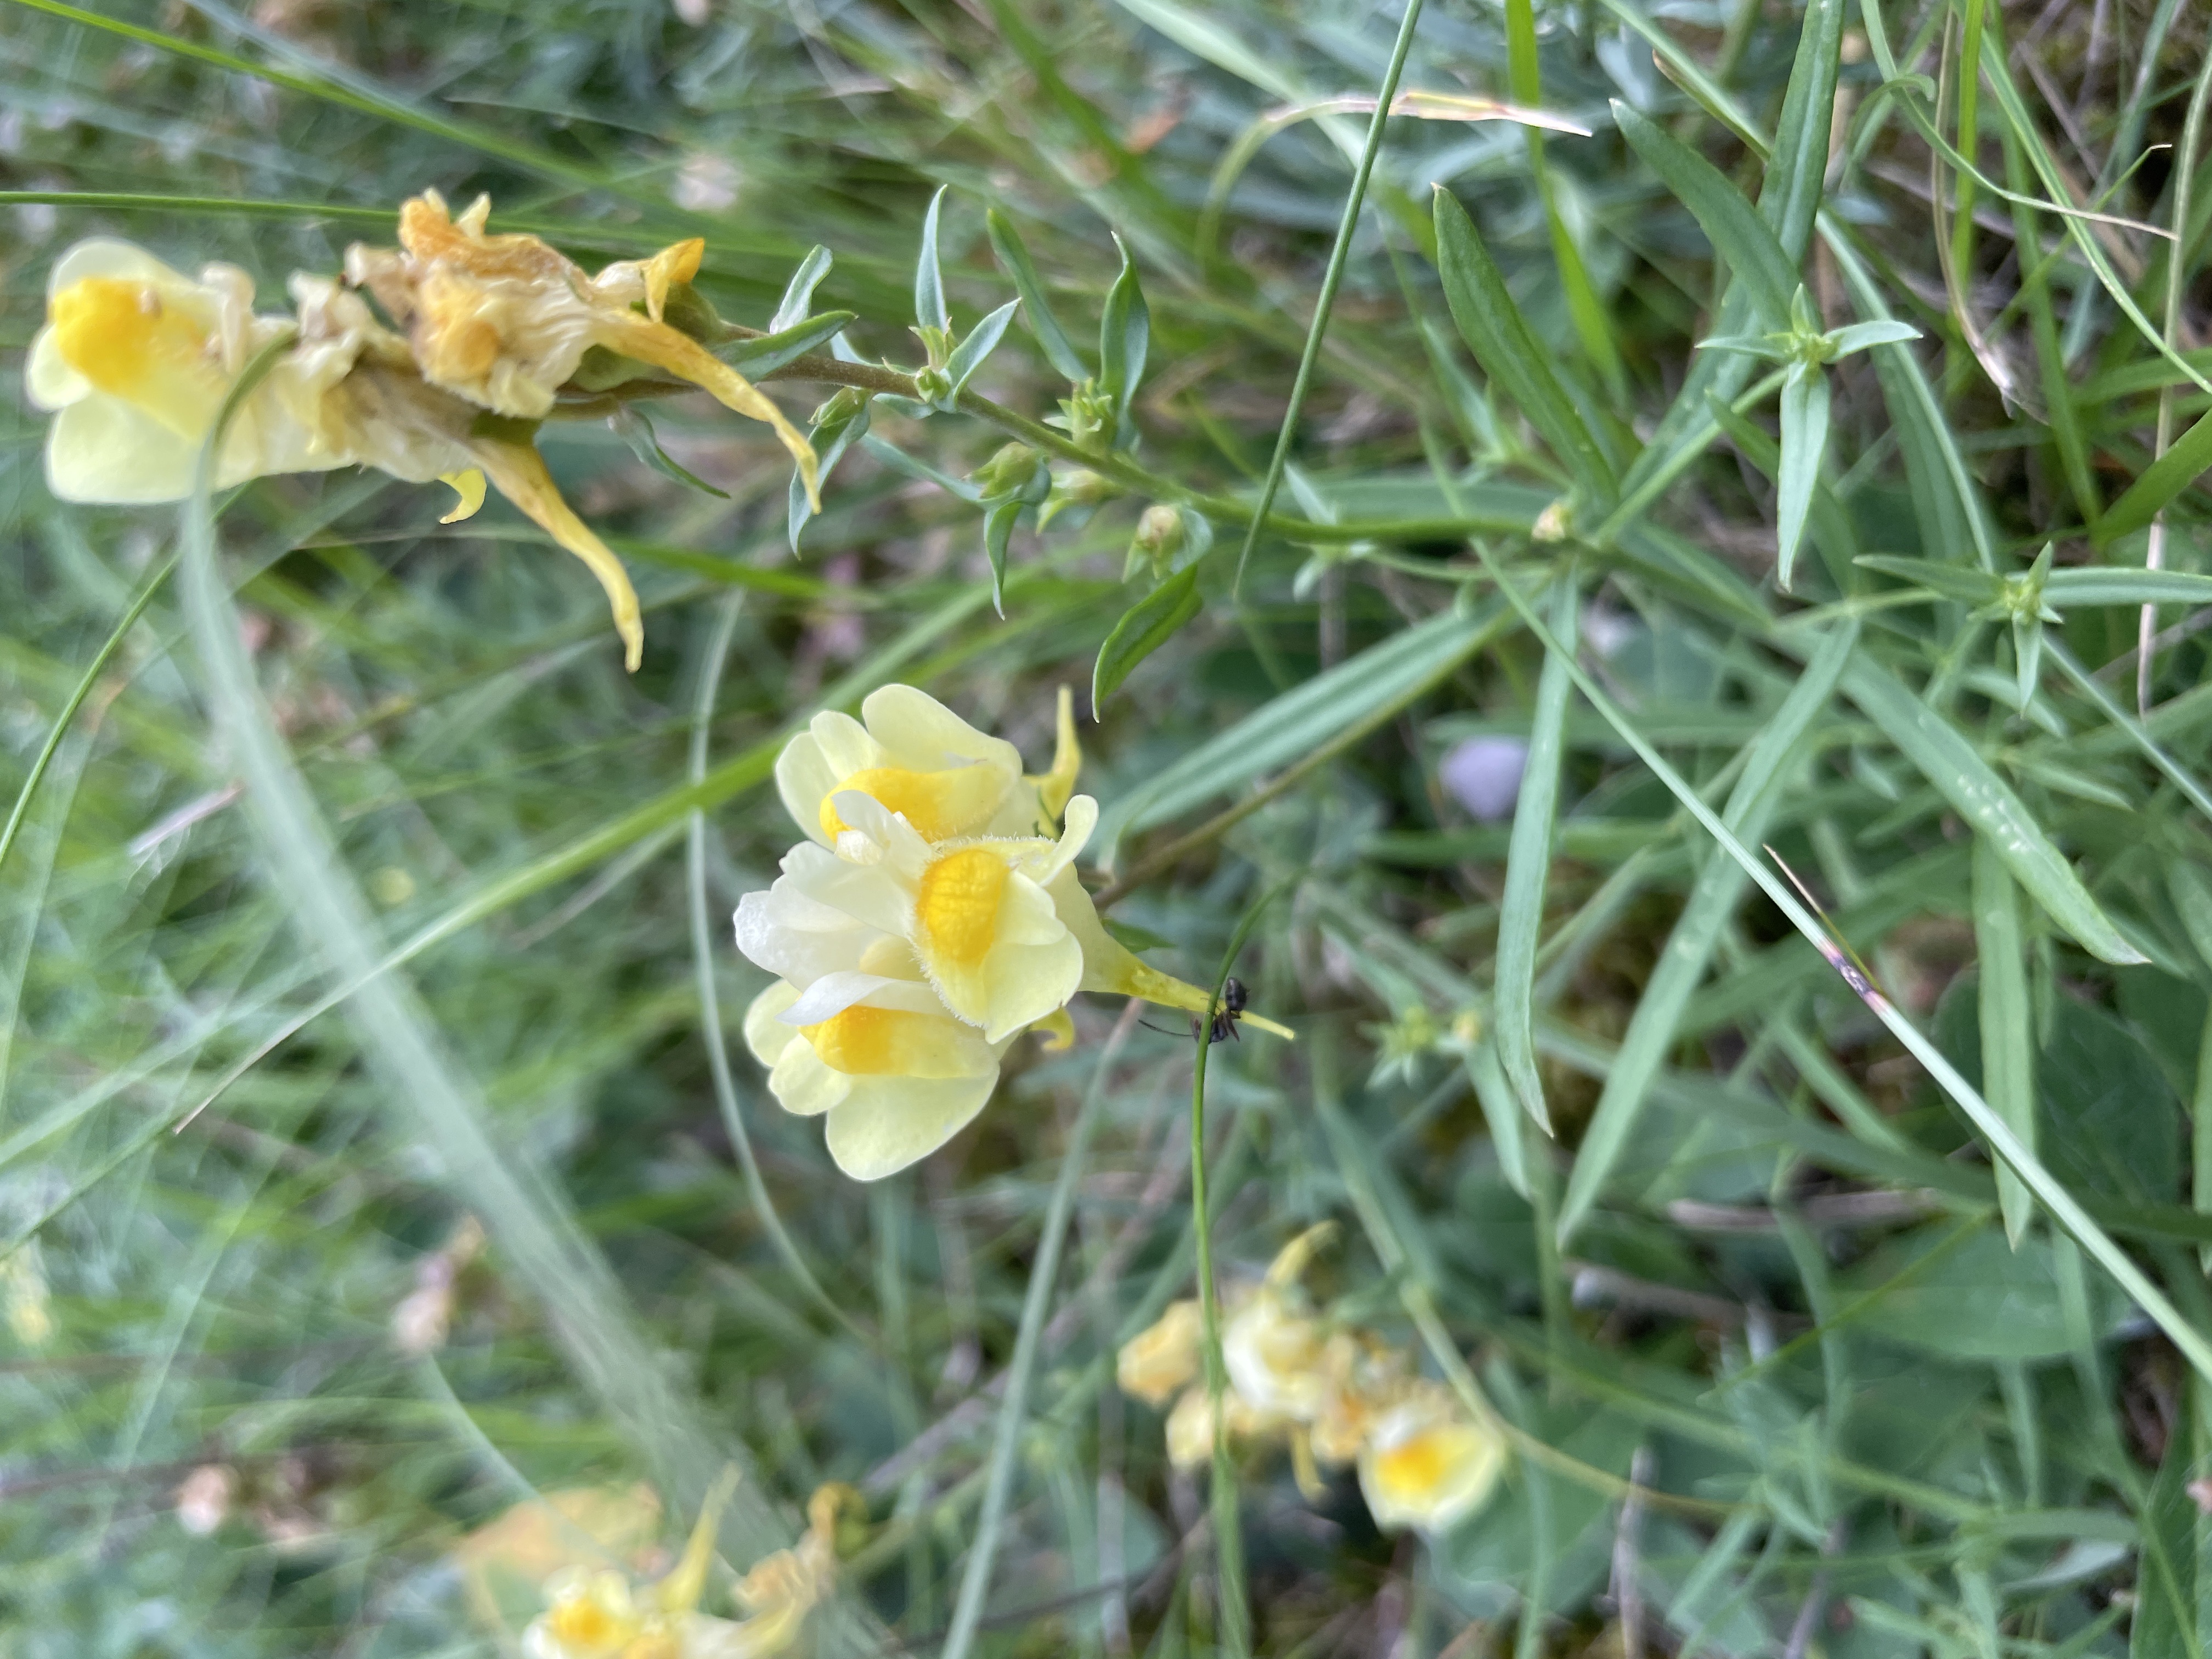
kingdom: Plantae
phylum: Tracheophyta
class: Magnoliopsida
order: Lamiales
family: Plantaginaceae
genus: Linaria
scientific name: Linaria vulgaris
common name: Almindelig torskemund
